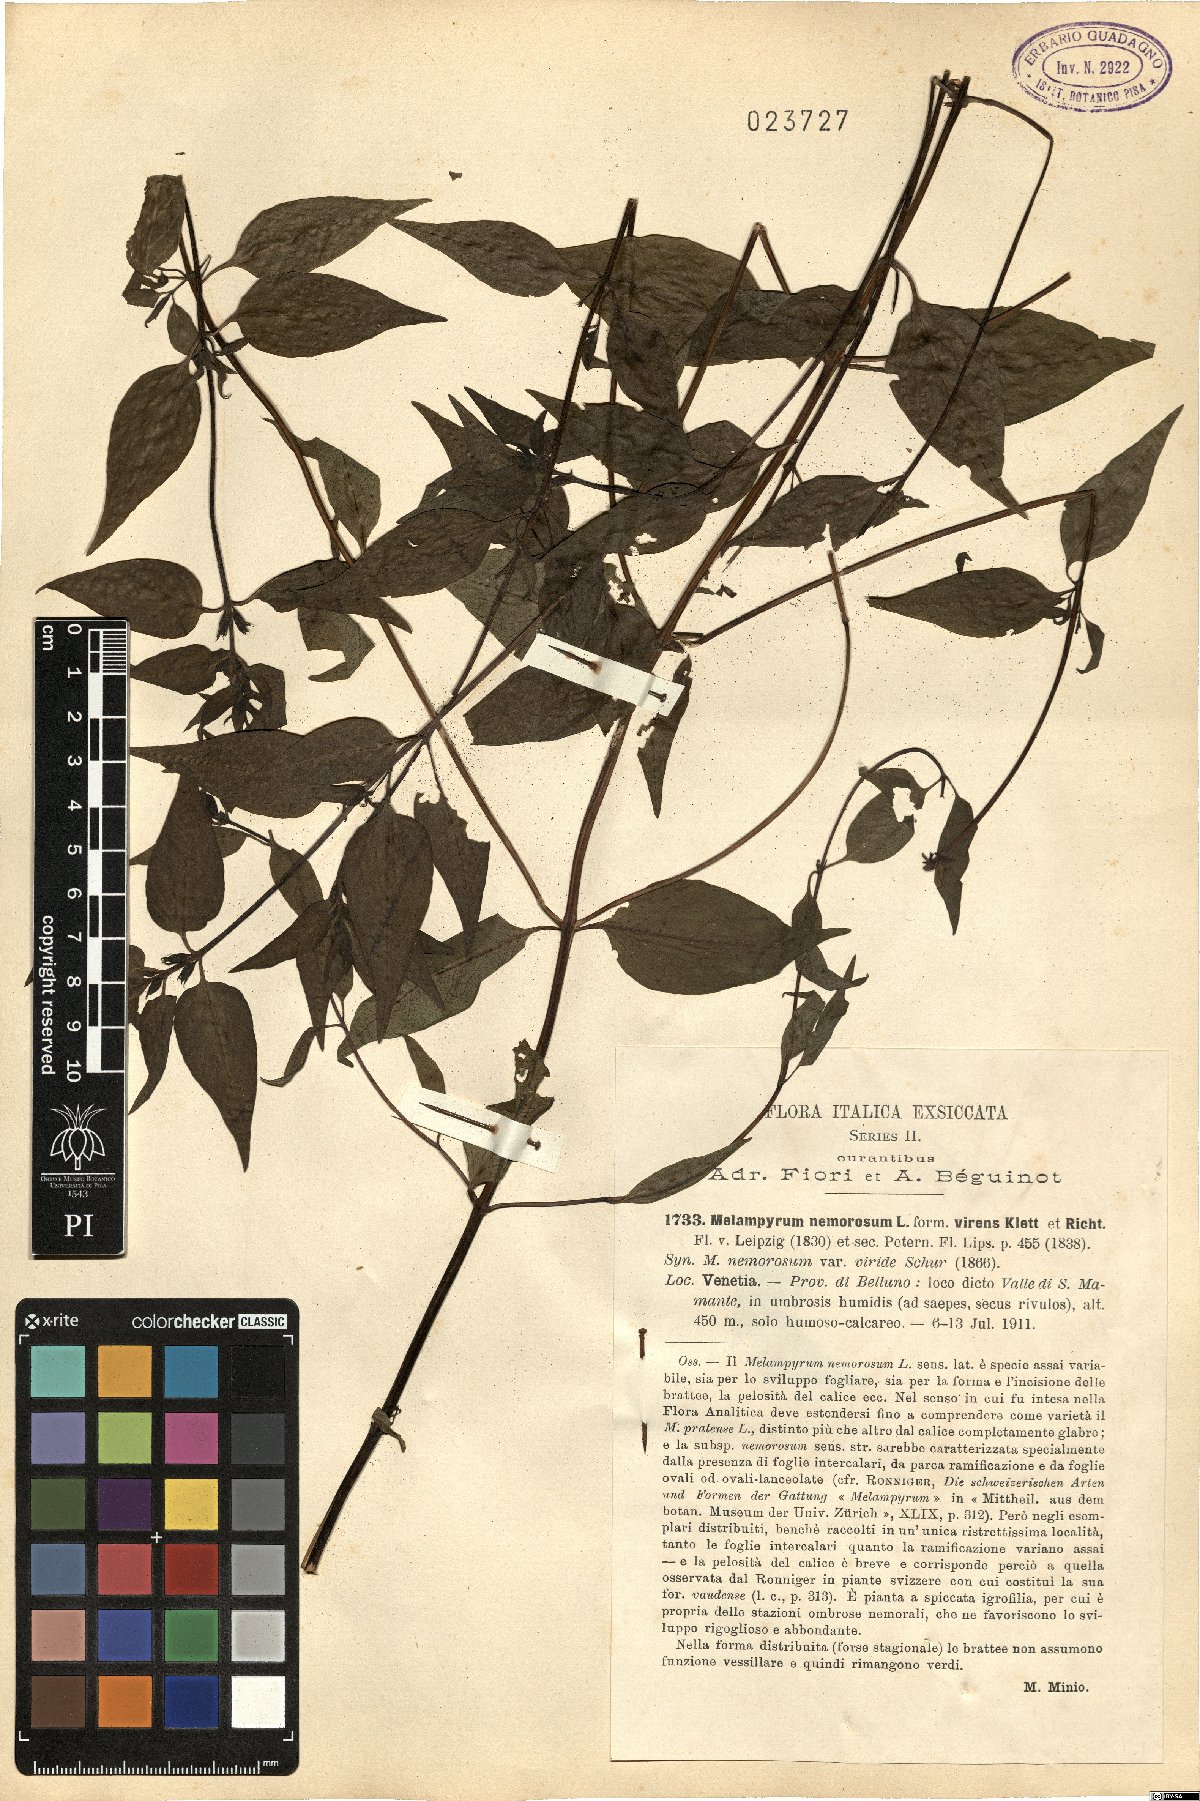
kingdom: Plantae
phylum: Tracheophyta
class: Magnoliopsida
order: Lamiales
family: Orobanchaceae
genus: Melampyrum
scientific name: Melampyrum nemorosum
